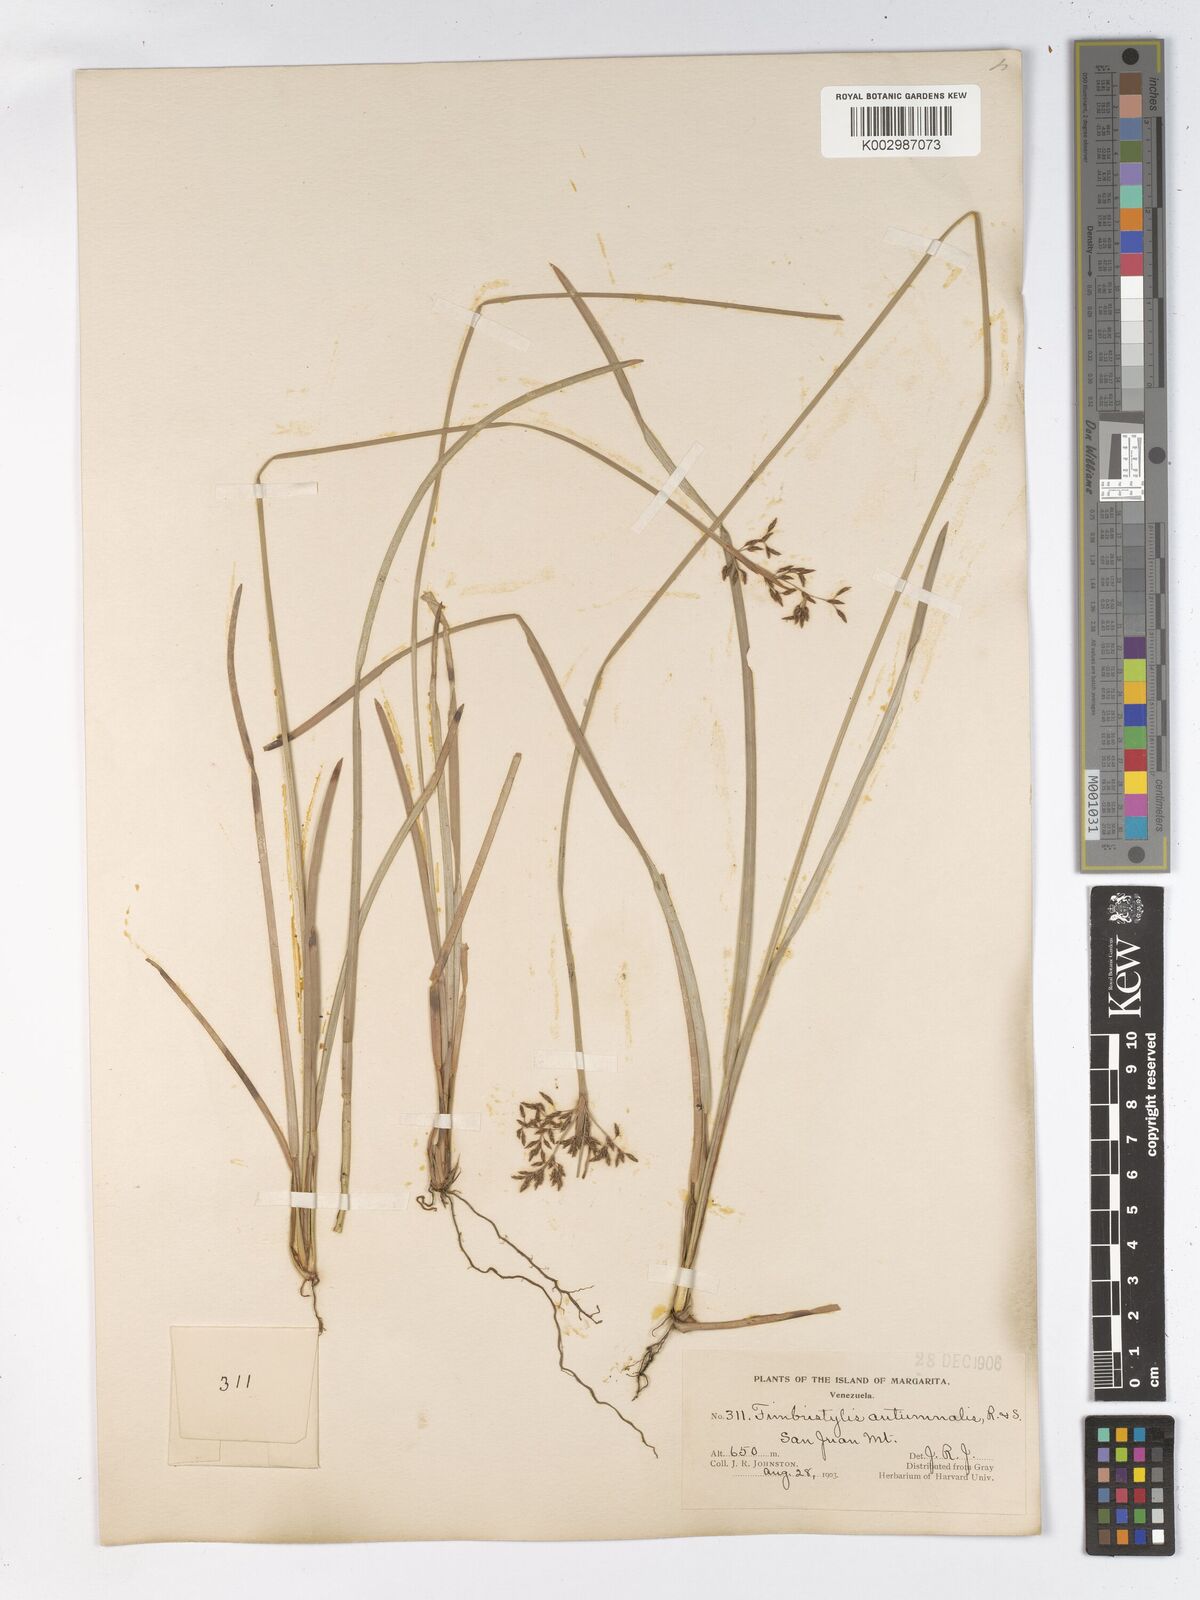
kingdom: Plantae
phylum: Tracheophyta
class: Liliopsida
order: Poales
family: Cyperaceae
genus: Fimbristylis
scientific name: Fimbristylis autumnalis
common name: Slender fimbristylis
